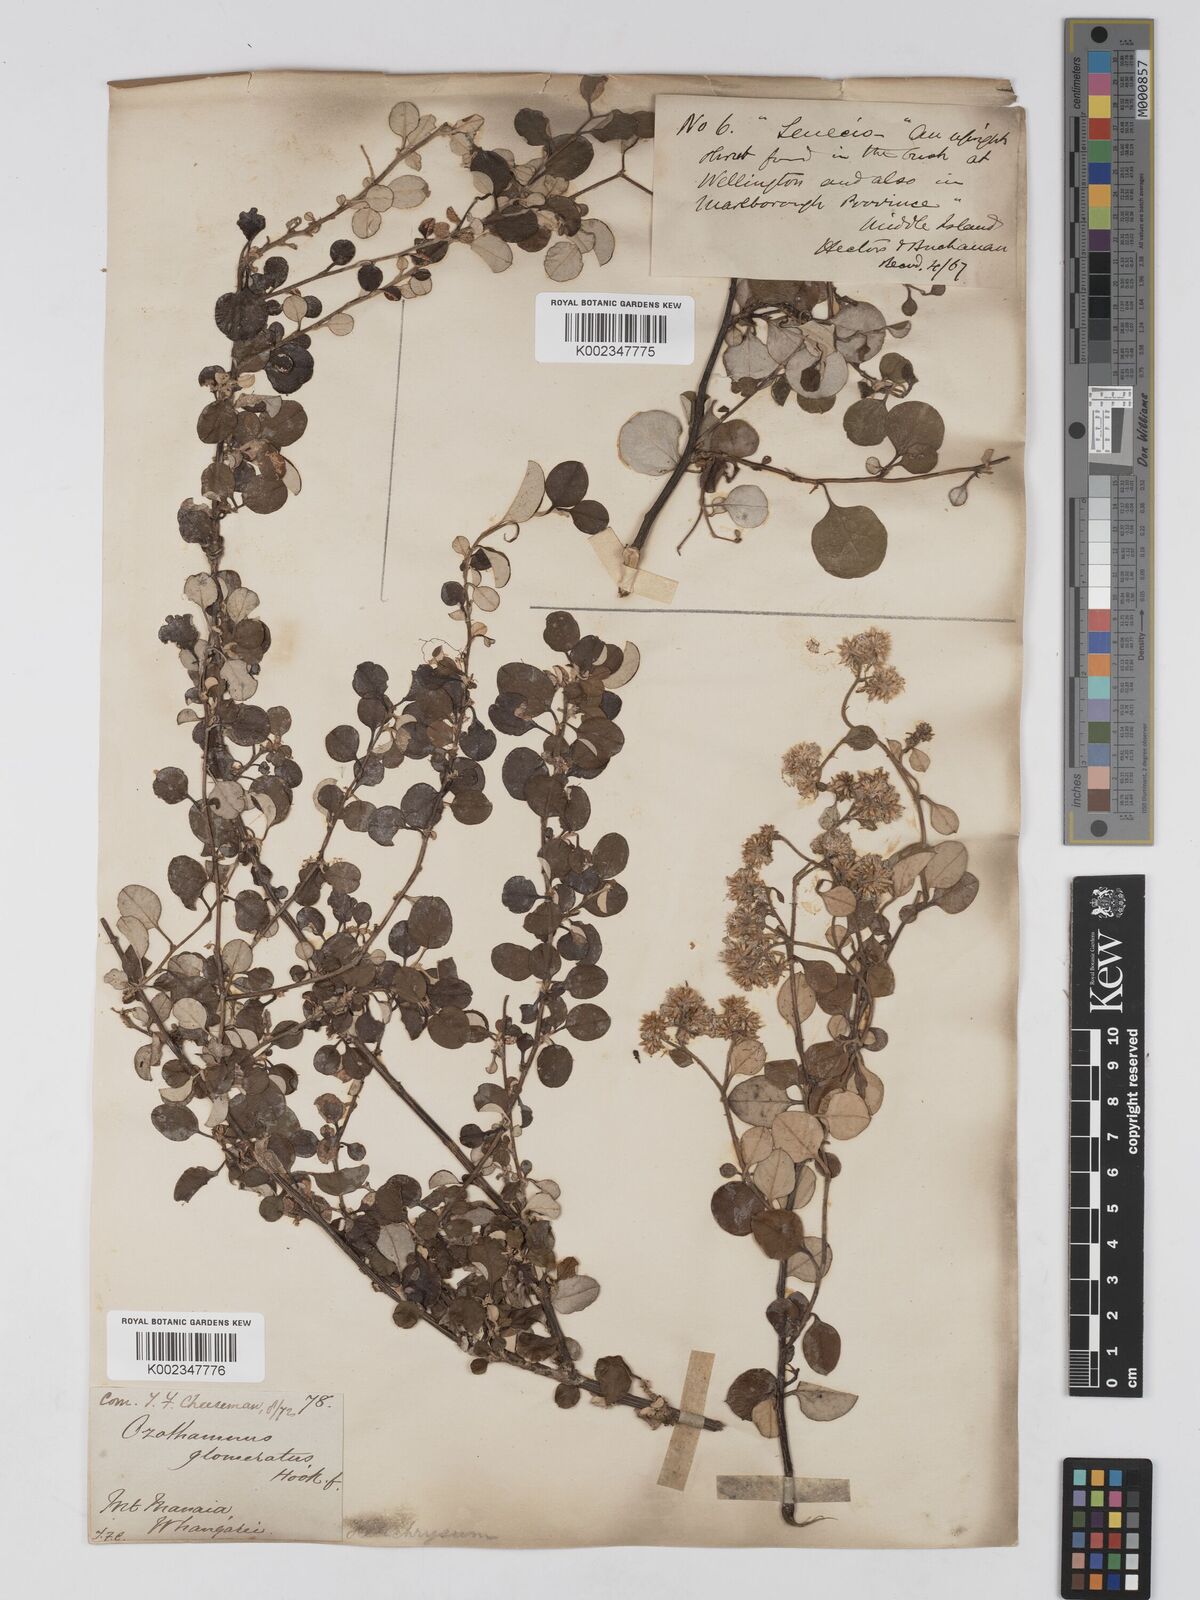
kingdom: Plantae
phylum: Tracheophyta
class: Magnoliopsida
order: Asterales
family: Asteraceae
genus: Ozothamnus
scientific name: Ozothamnus glomeratus
